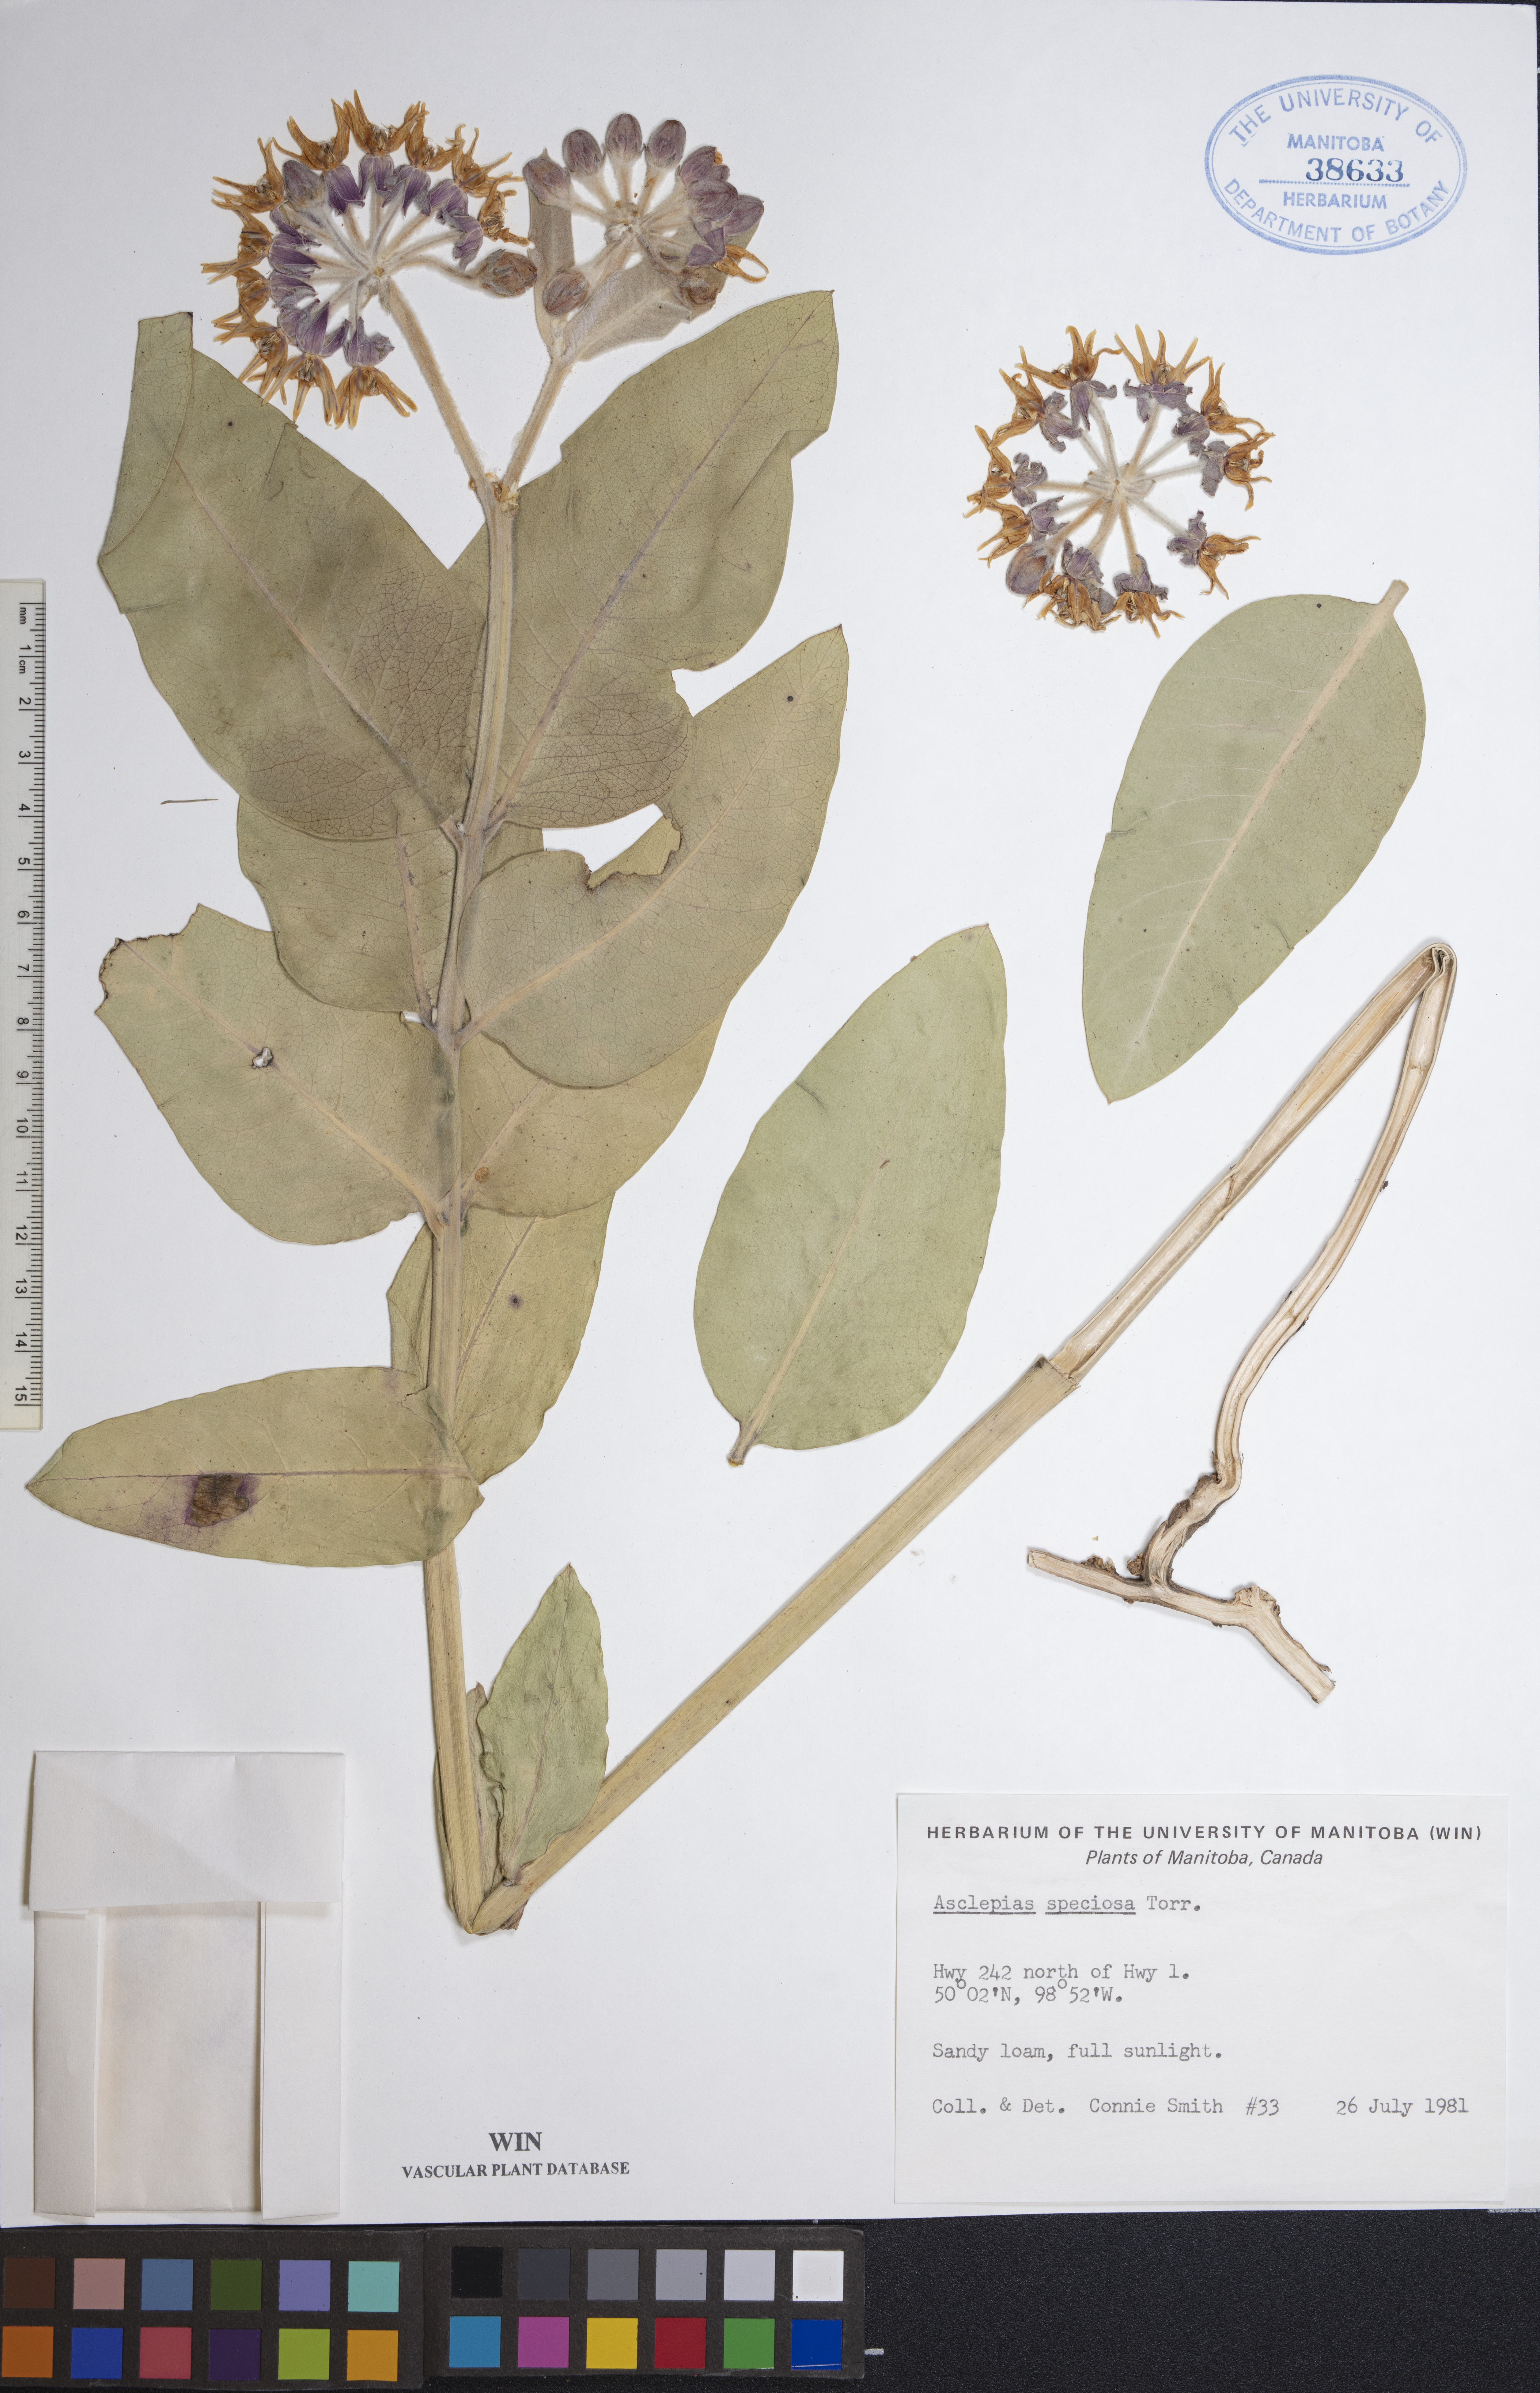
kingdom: Plantae
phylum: Tracheophyta
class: Magnoliopsida
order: Gentianales
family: Apocynaceae
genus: Asclepias
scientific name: Asclepias speciosa
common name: Showy milkweed
